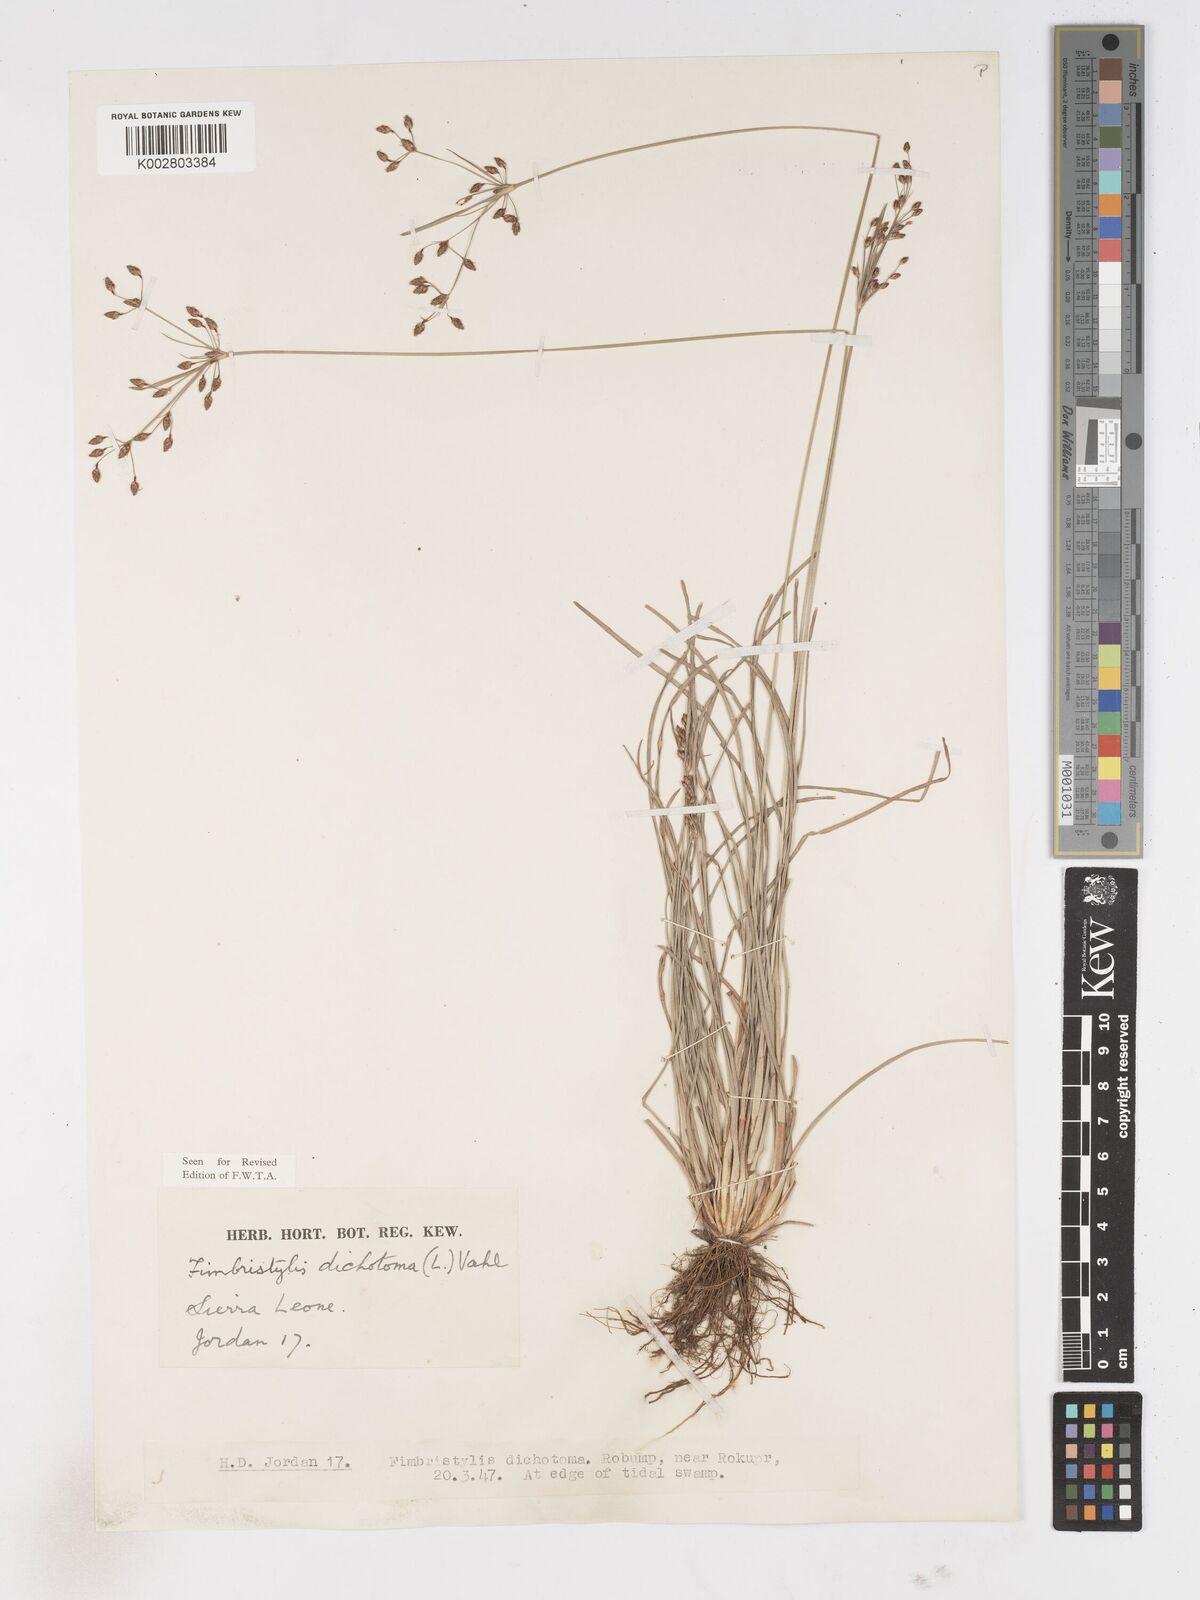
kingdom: Plantae
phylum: Tracheophyta
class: Liliopsida
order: Poales
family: Cyperaceae
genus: Fimbristylis
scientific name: Fimbristylis dichotoma
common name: Forked fimbry
